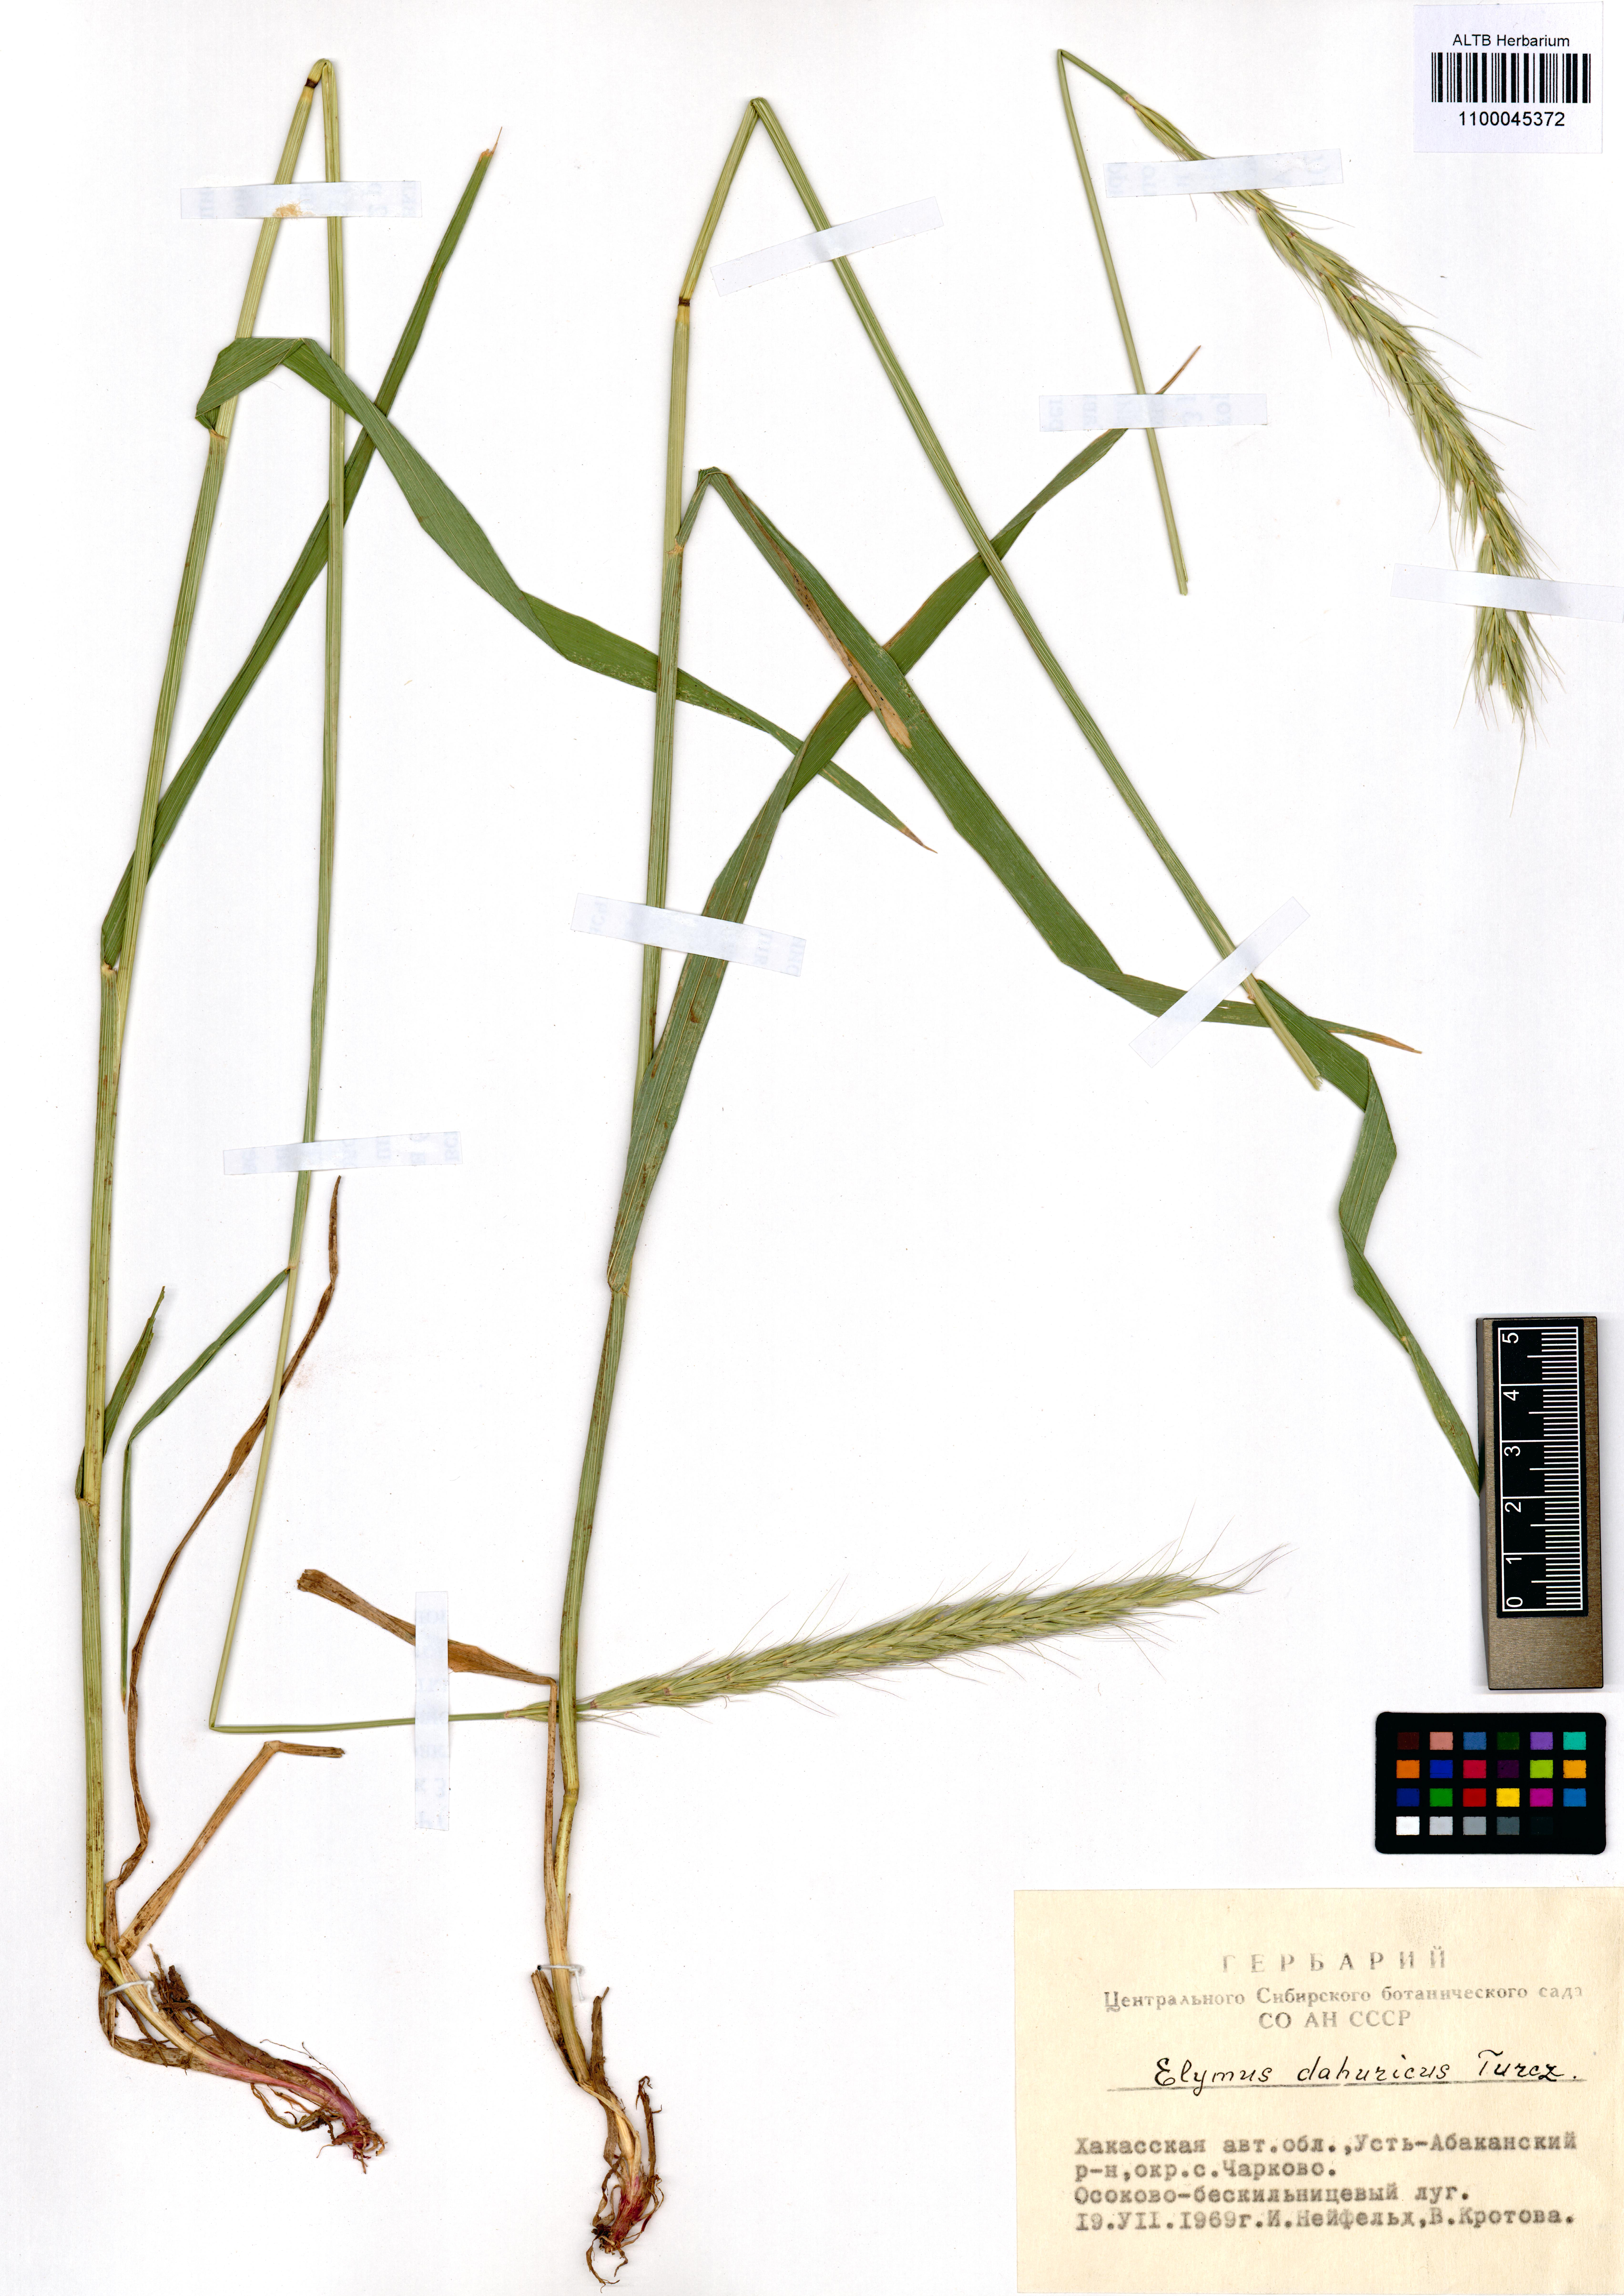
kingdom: Plantae
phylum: Tracheophyta
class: Liliopsida
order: Poales
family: Poaceae
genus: Elymus
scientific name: Elymus dahuricus
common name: Dahurian wild rye
